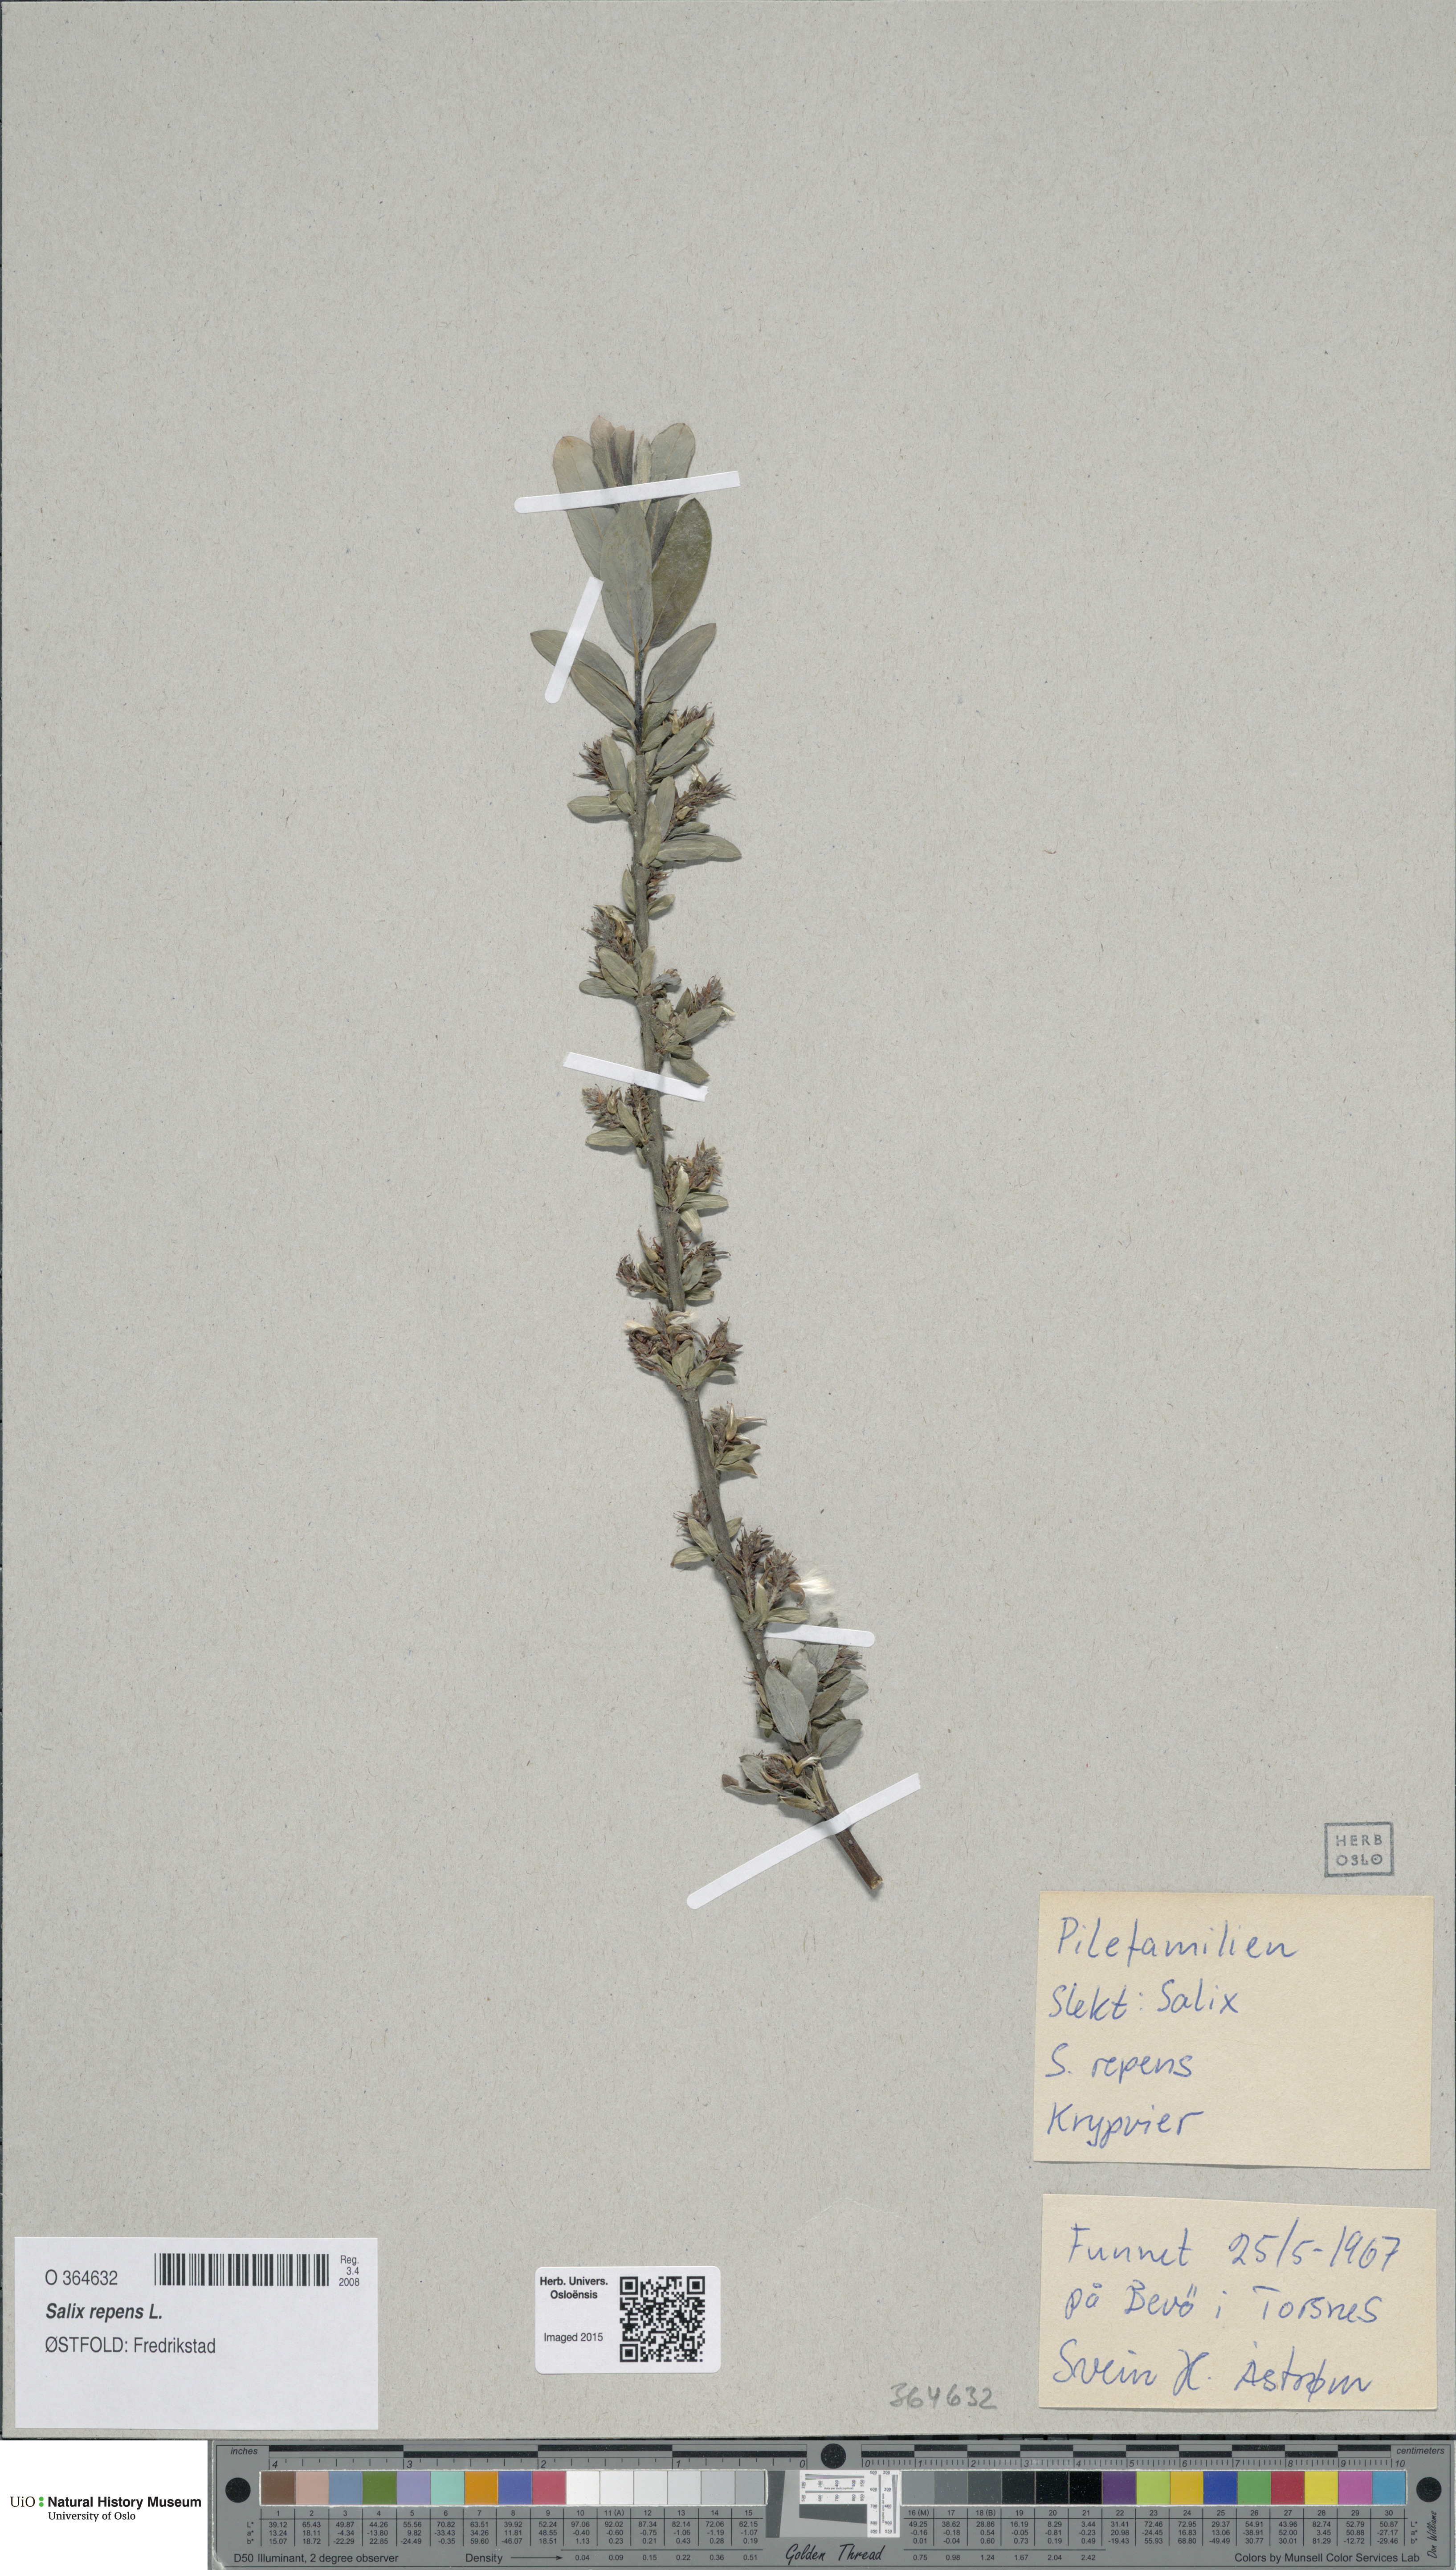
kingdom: Plantae
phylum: Tracheophyta
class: Magnoliopsida
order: Malpighiales
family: Salicaceae
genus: Salix
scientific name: Salix repens
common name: Creeping willow
